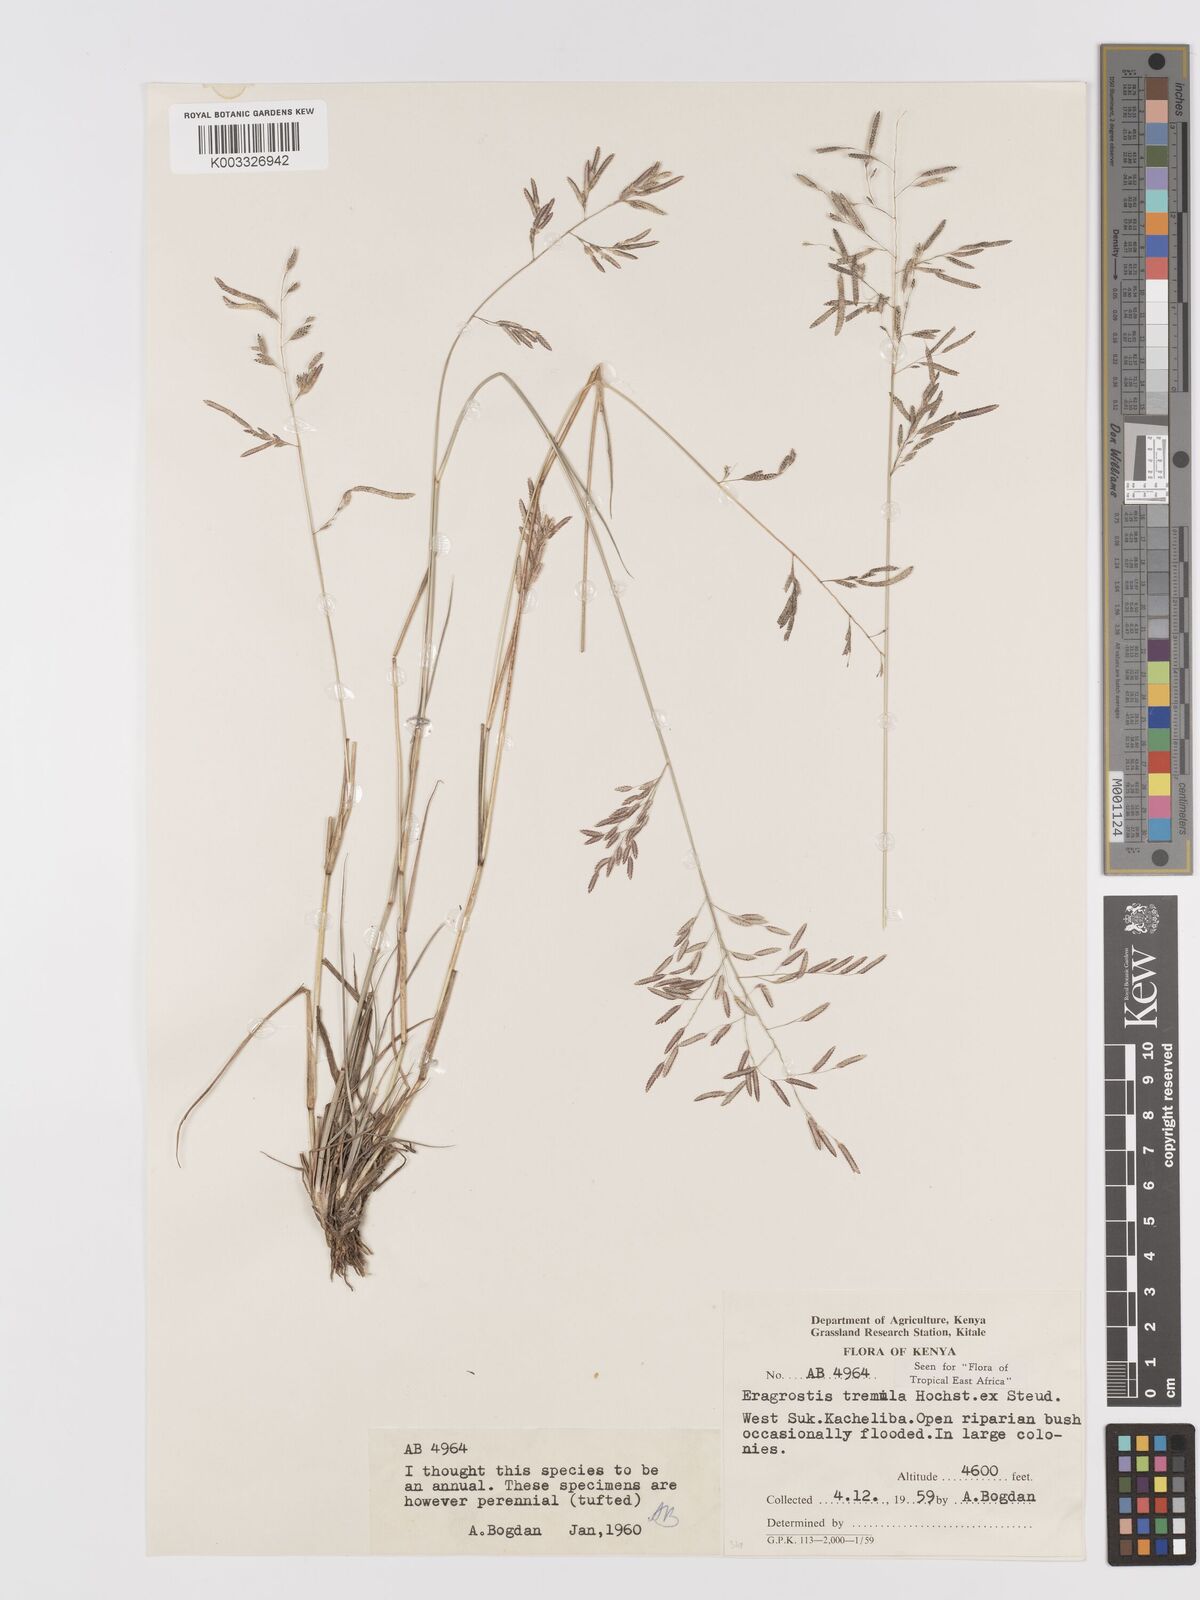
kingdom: Plantae
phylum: Tracheophyta
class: Liliopsida
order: Poales
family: Poaceae
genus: Eragrostis
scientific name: Eragrostis tremula
